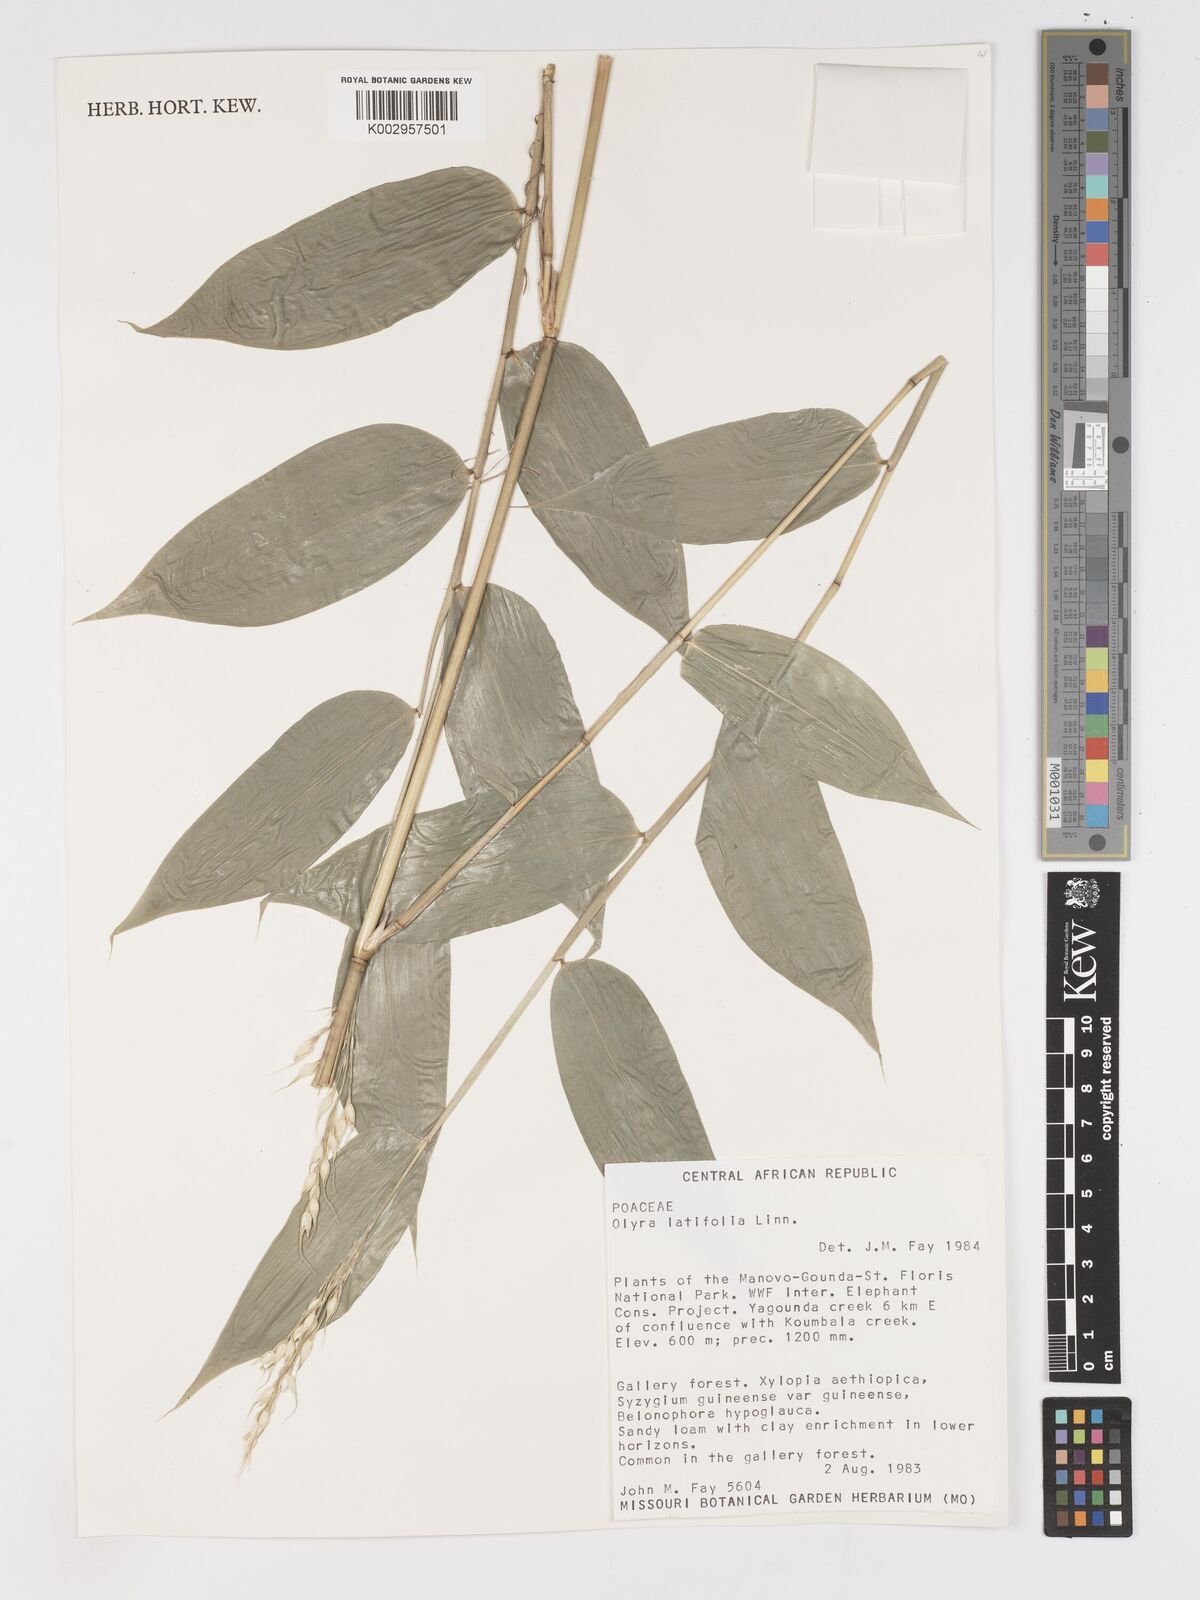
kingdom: Plantae
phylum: Tracheophyta
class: Liliopsida
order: Poales
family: Poaceae
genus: Olyra
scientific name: Olyra latifolia
